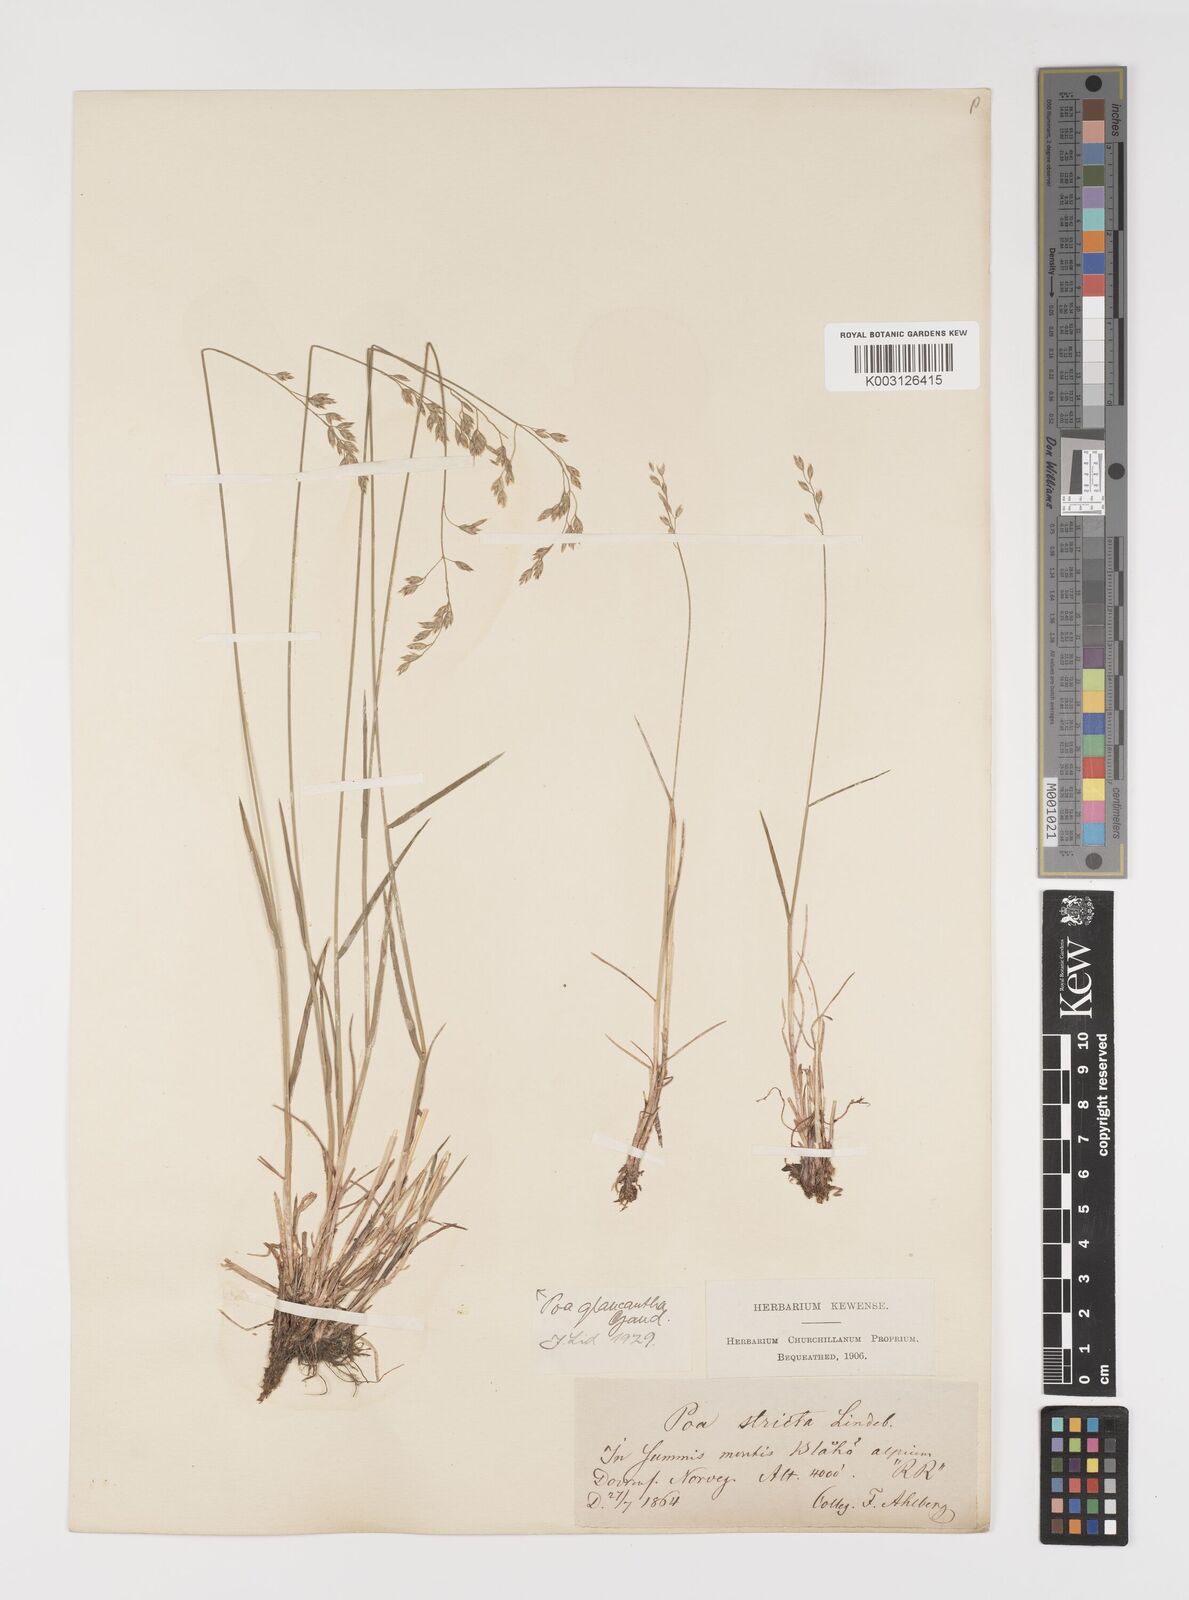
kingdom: Plantae
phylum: Tracheophyta
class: Liliopsida
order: Poales
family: Poaceae
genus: Poa
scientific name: Poa nemoralis
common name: Wood bluegrass
